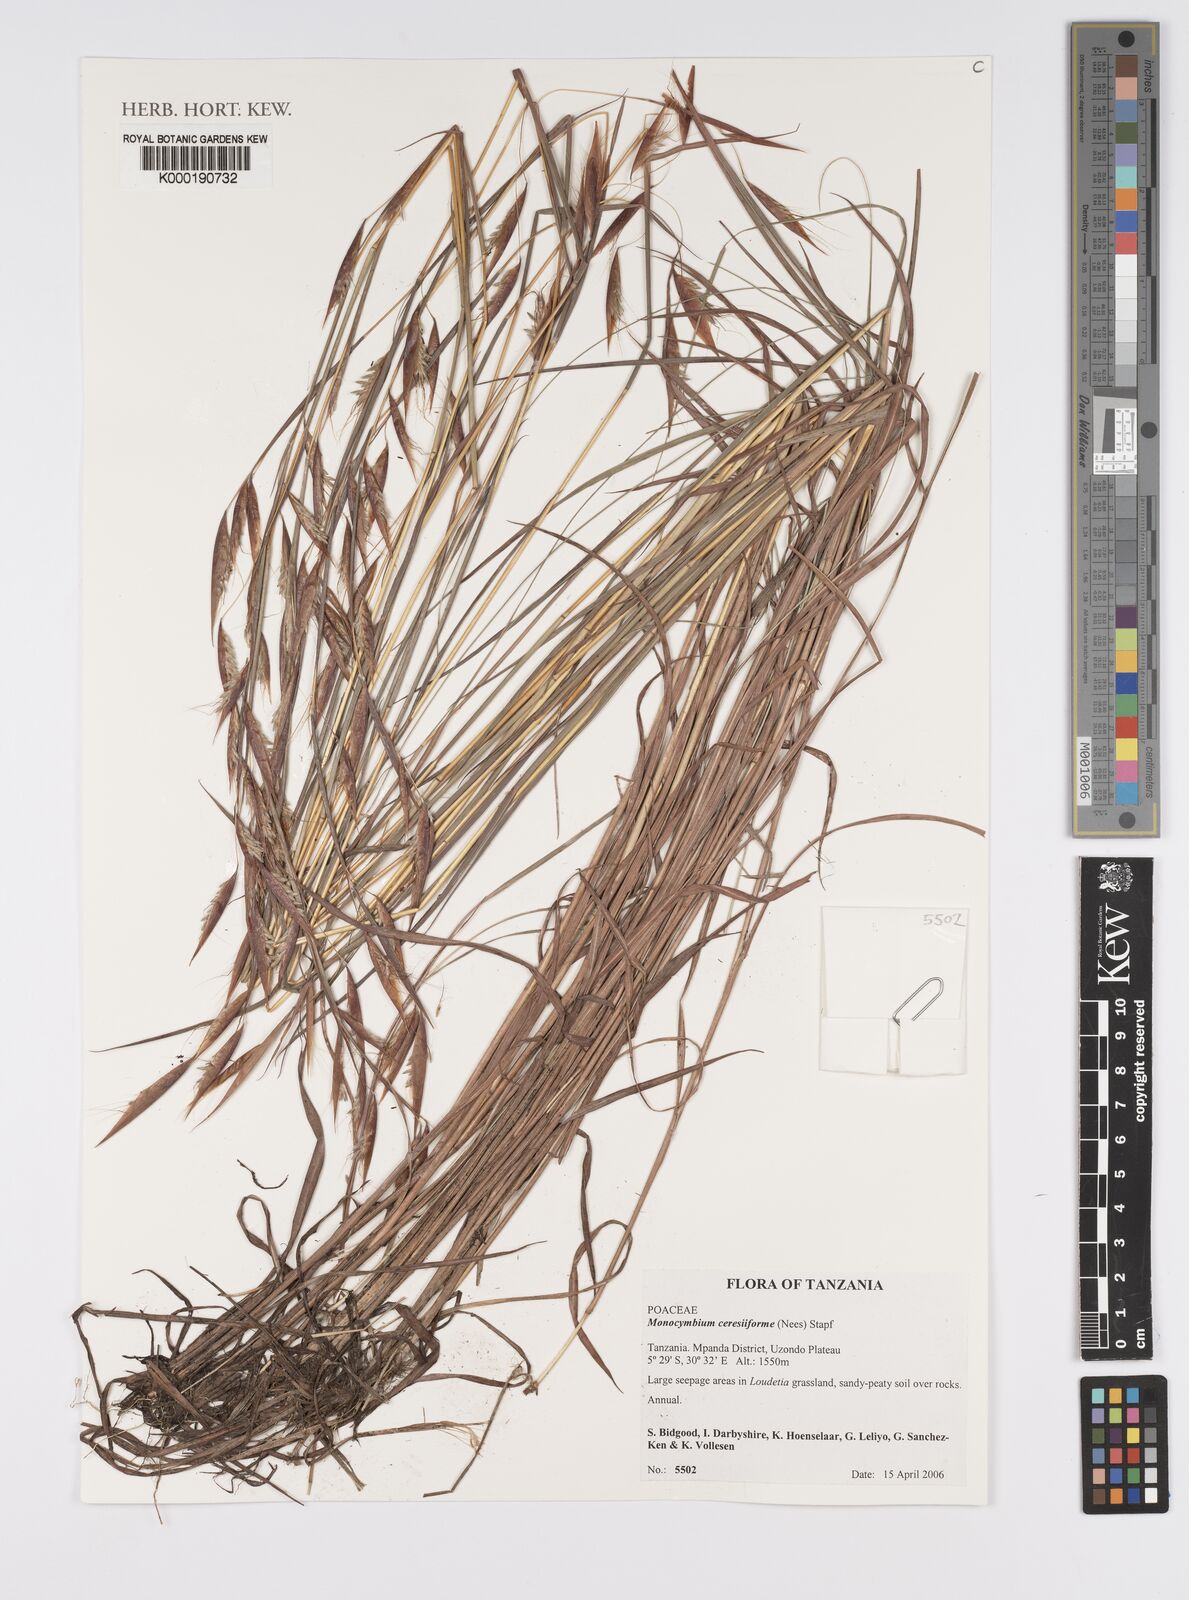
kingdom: Plantae
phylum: Tracheophyta
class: Liliopsida
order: Poales
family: Poaceae
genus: Monocymbium
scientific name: Monocymbium ceresiiforme
